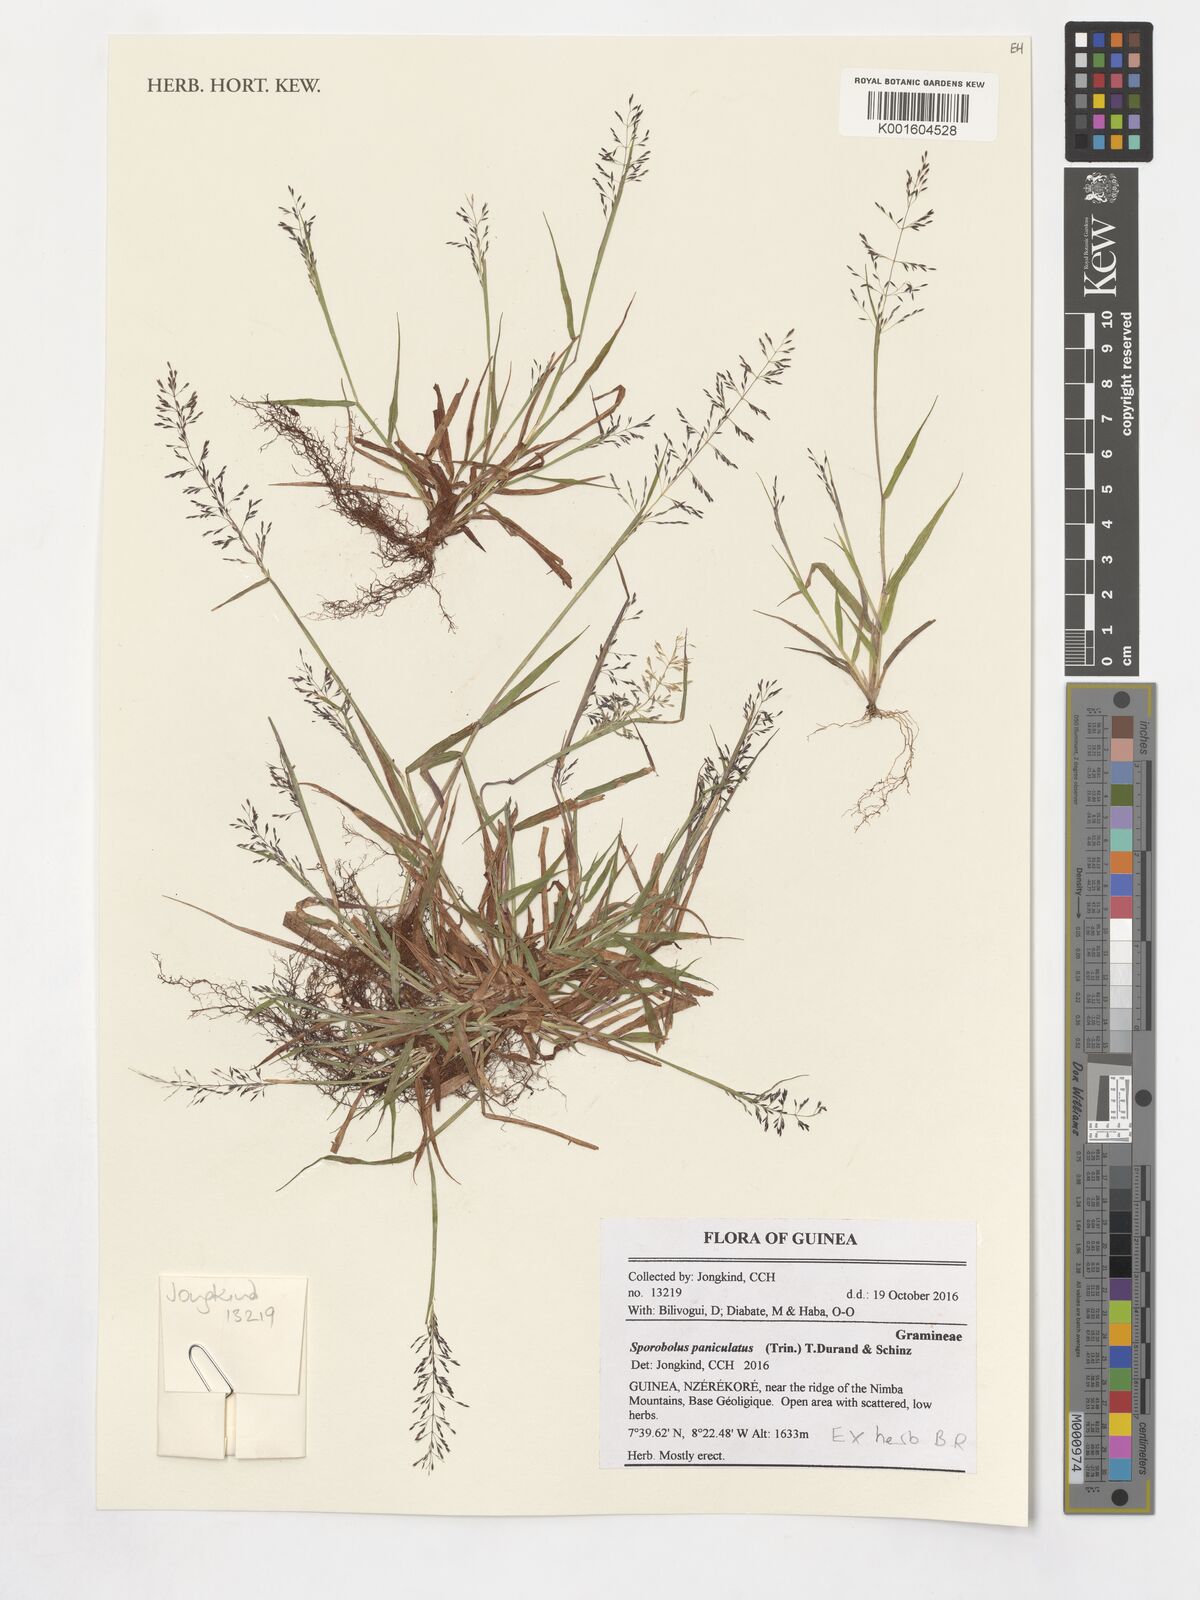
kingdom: Plantae
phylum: Tracheophyta
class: Liliopsida
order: Poales
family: Poaceae
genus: Sporobolus
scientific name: Sporobolus paniculatus
